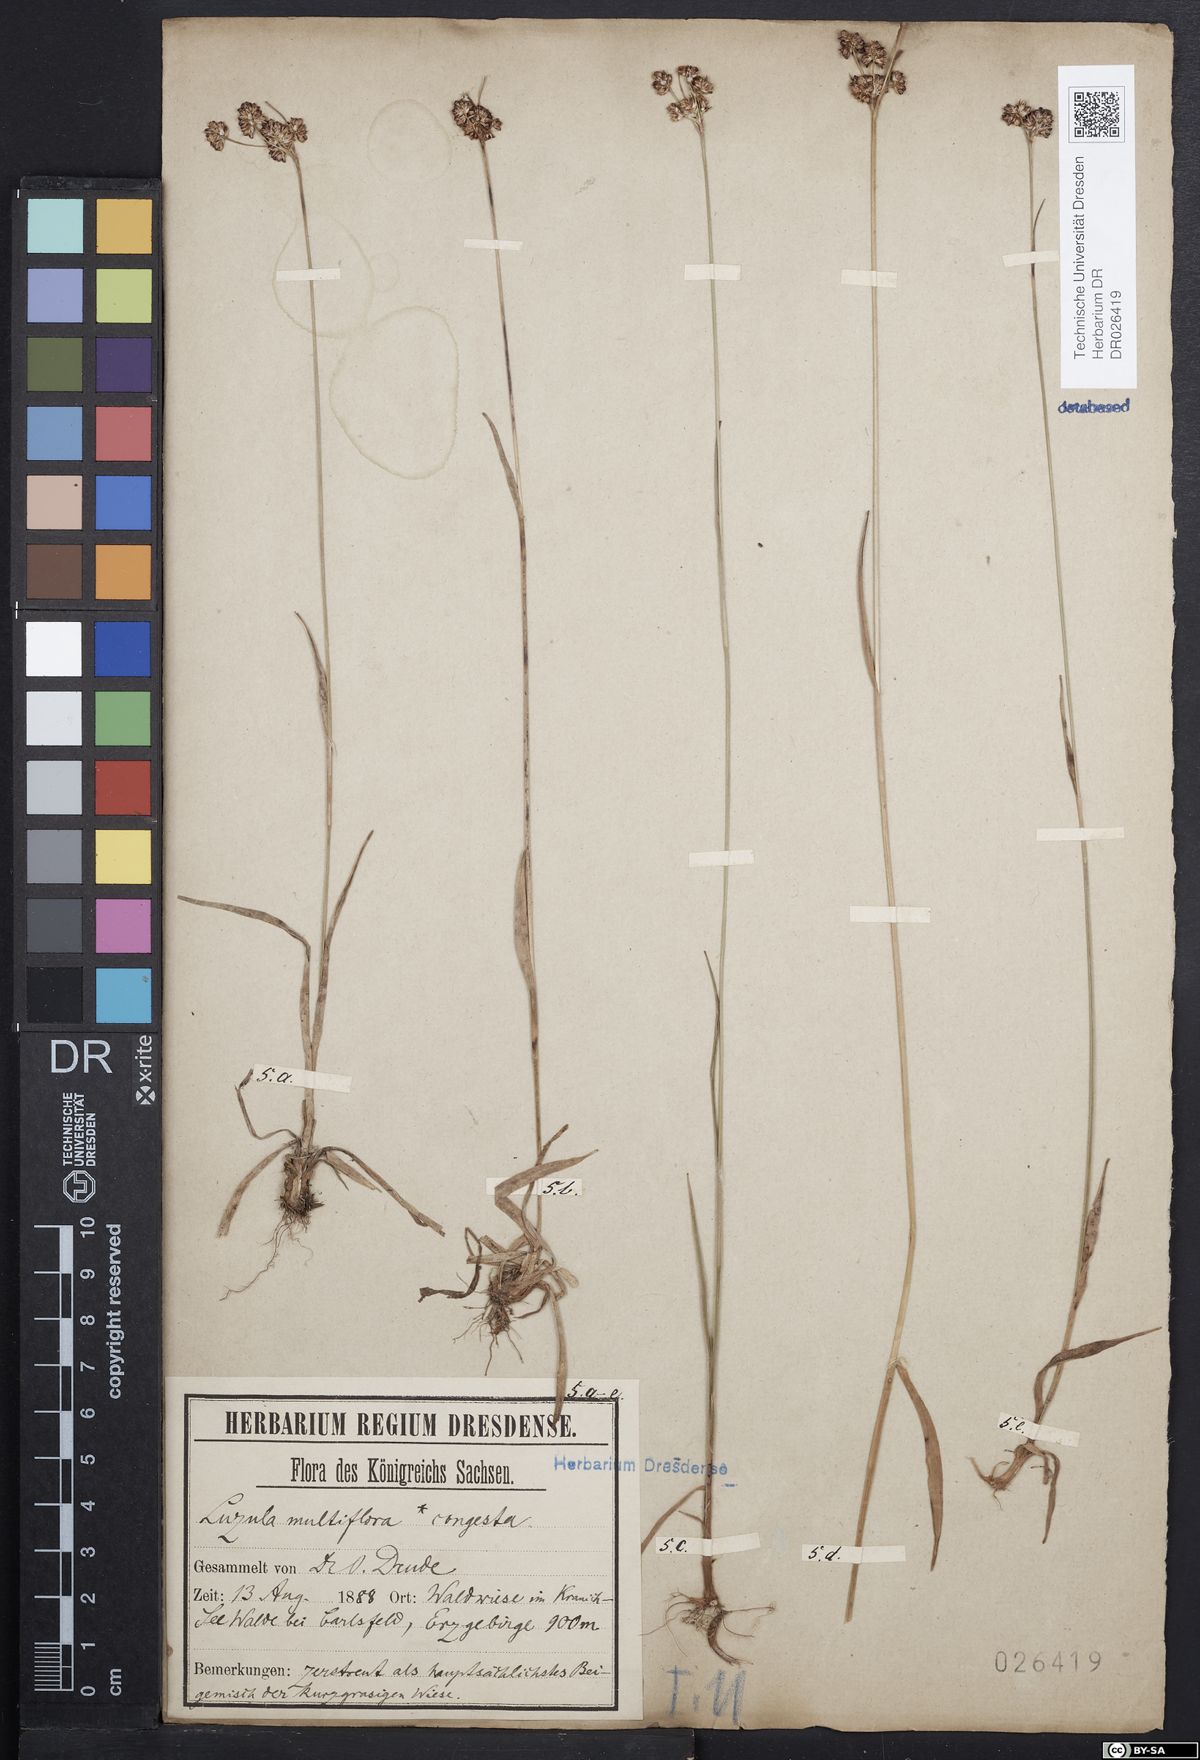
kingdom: Plantae
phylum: Tracheophyta
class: Liliopsida
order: Poales
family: Juncaceae
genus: Luzula
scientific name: Luzula multiflora
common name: Heath wood-rush
